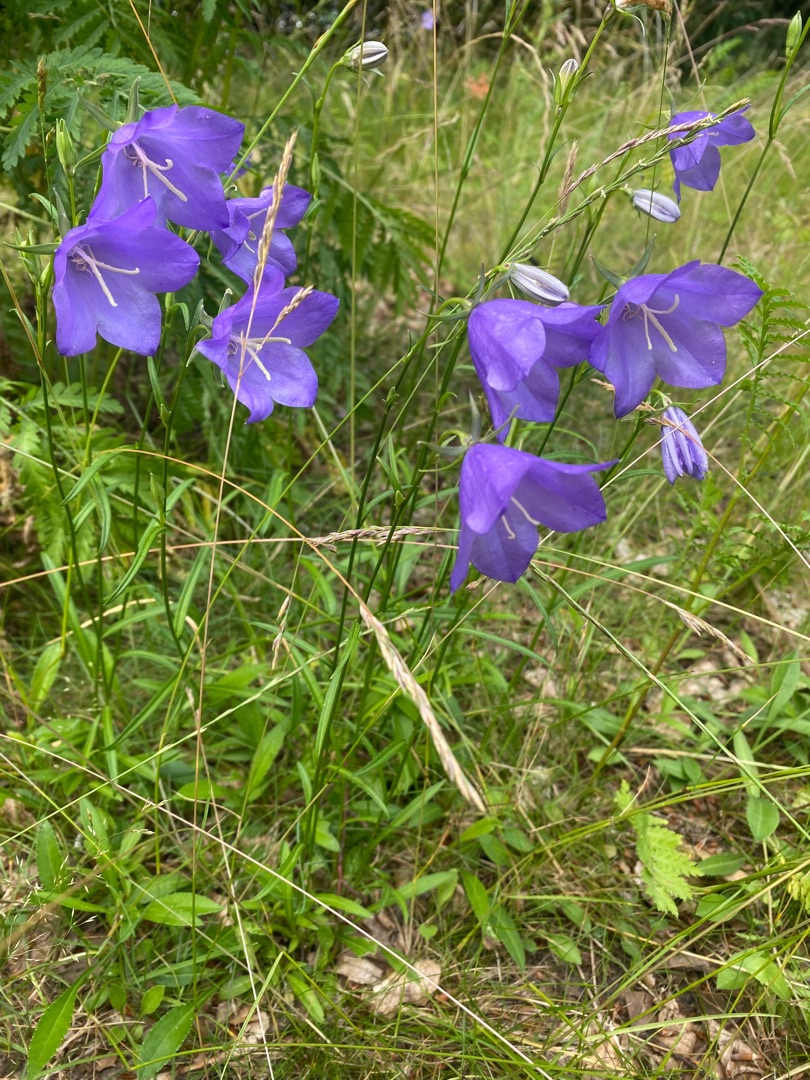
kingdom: Plantae
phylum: Tracheophyta
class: Magnoliopsida
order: Asterales
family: Campanulaceae
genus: Campanula
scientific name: Campanula persicifolia
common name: Smalbladet klokke
